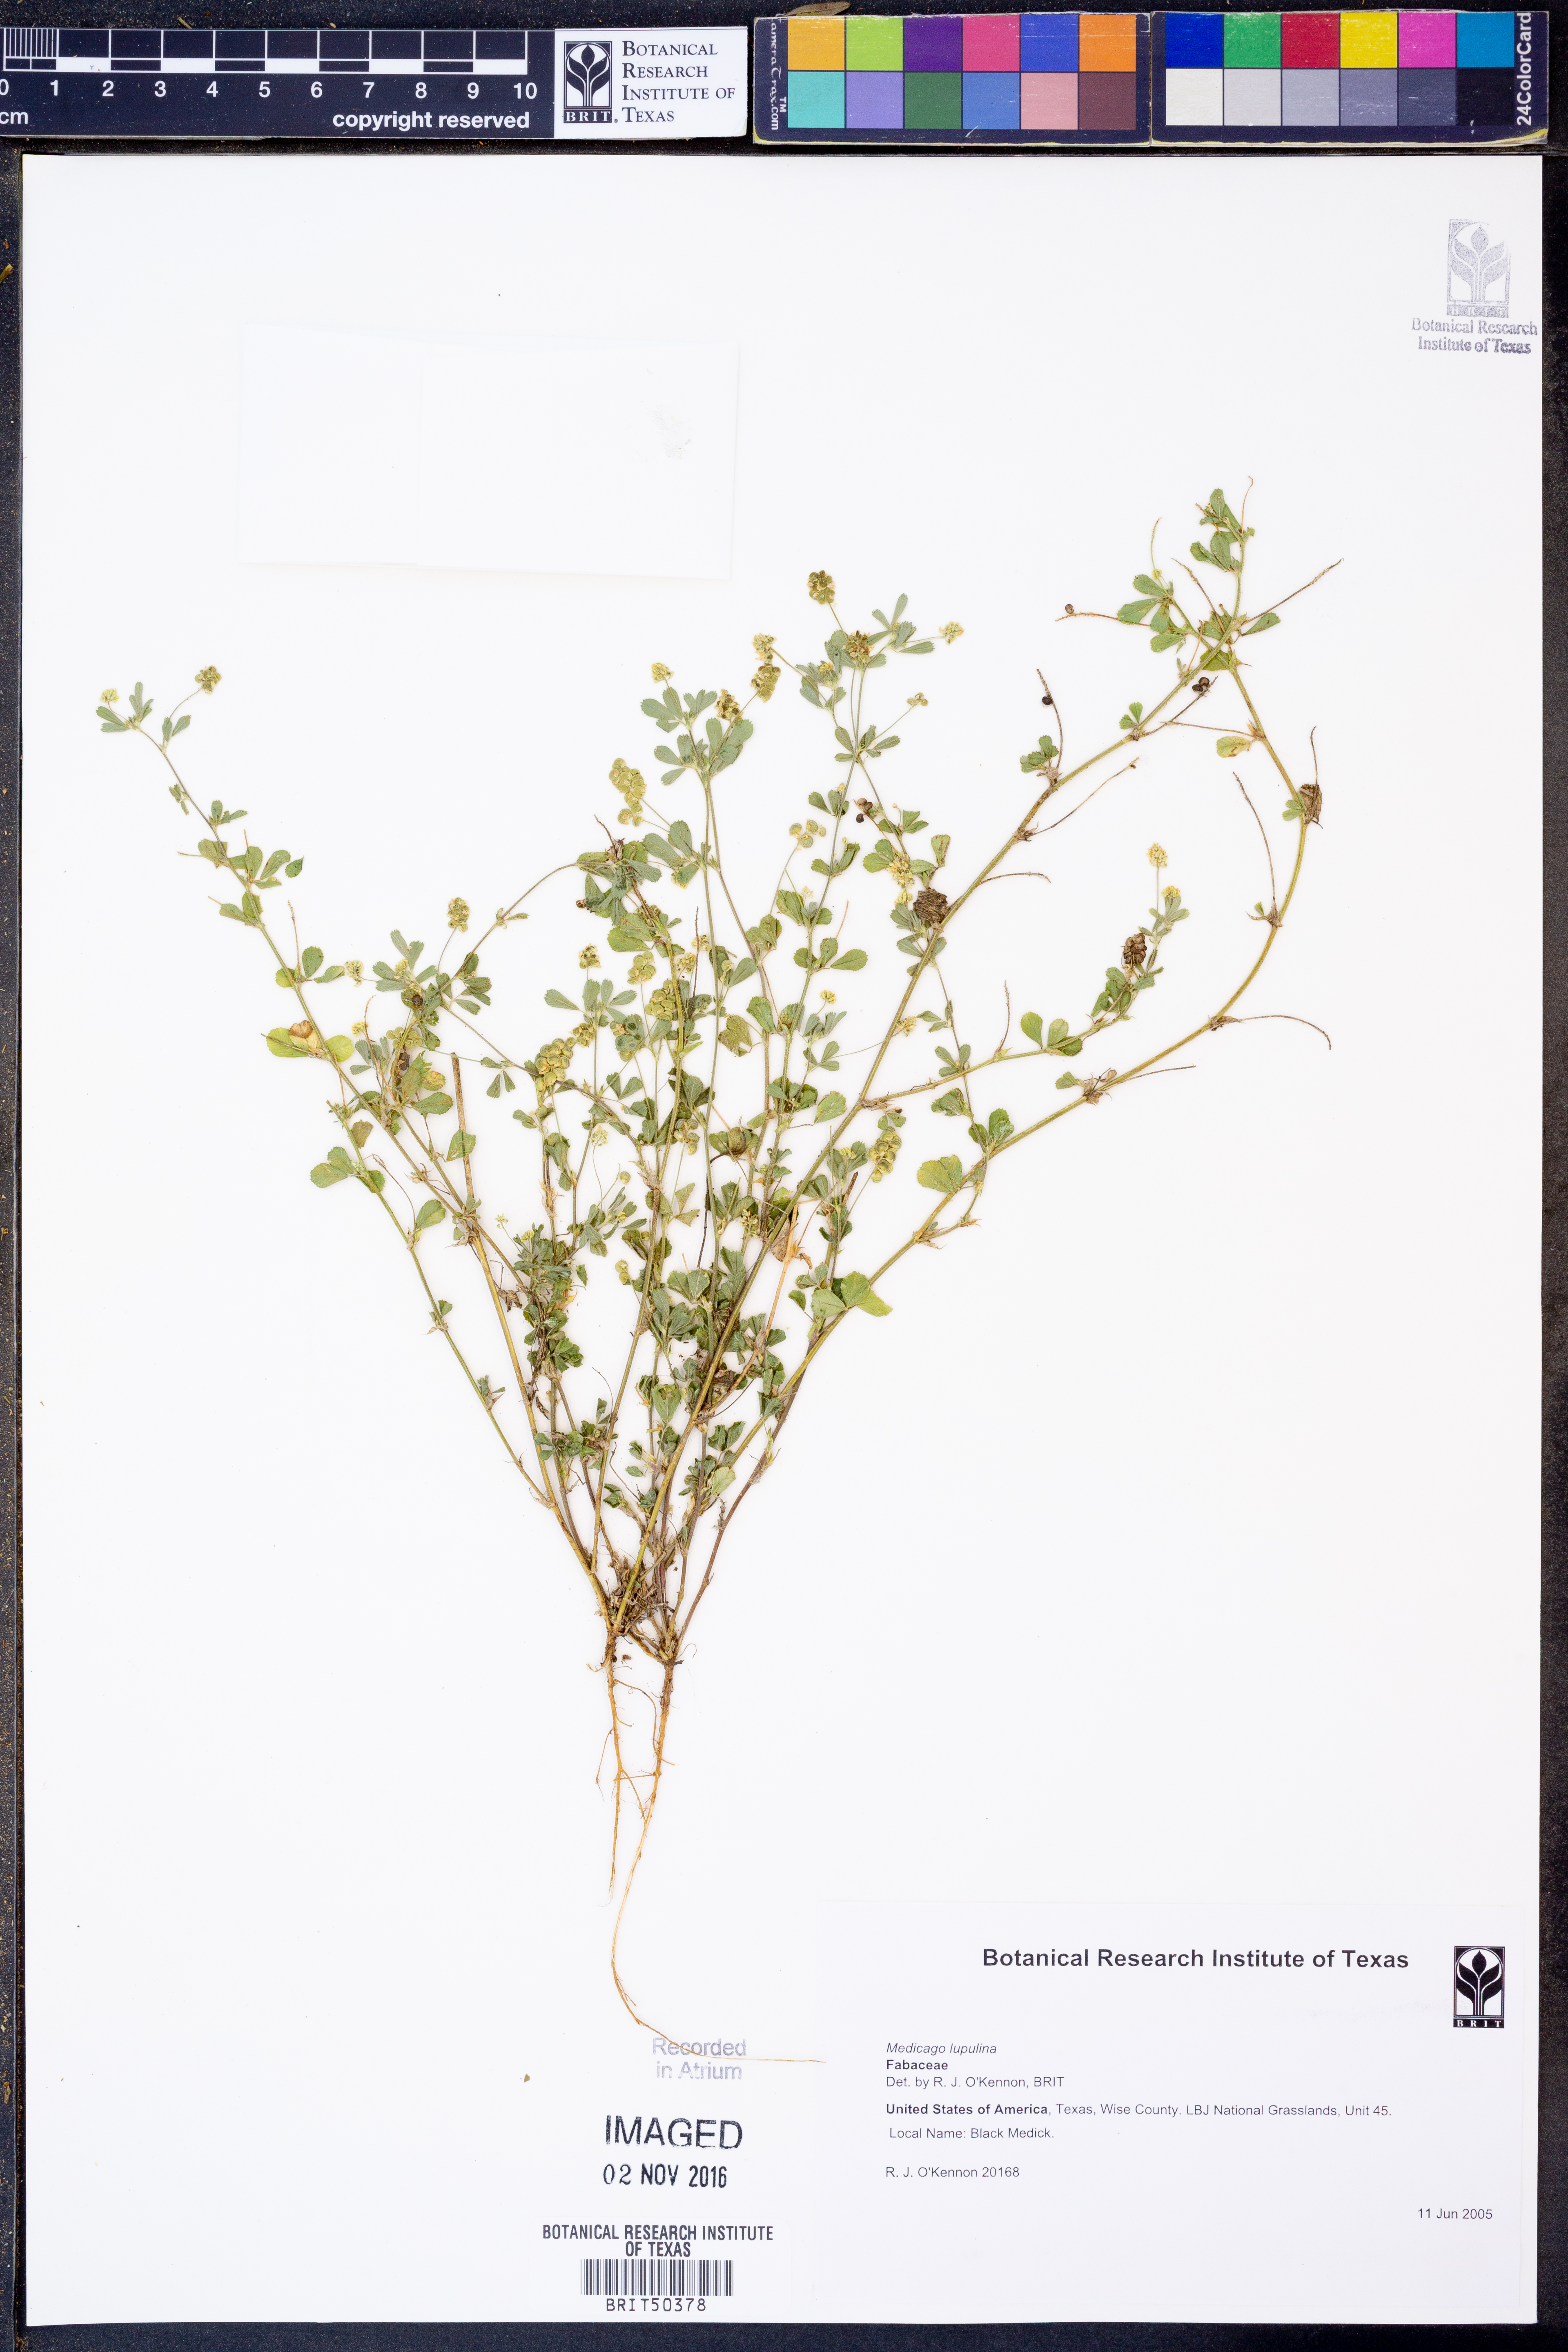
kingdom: Plantae
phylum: Tracheophyta
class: Magnoliopsida
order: Fabales
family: Fabaceae
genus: Medicago
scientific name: Medicago lupulina
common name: Black medick
